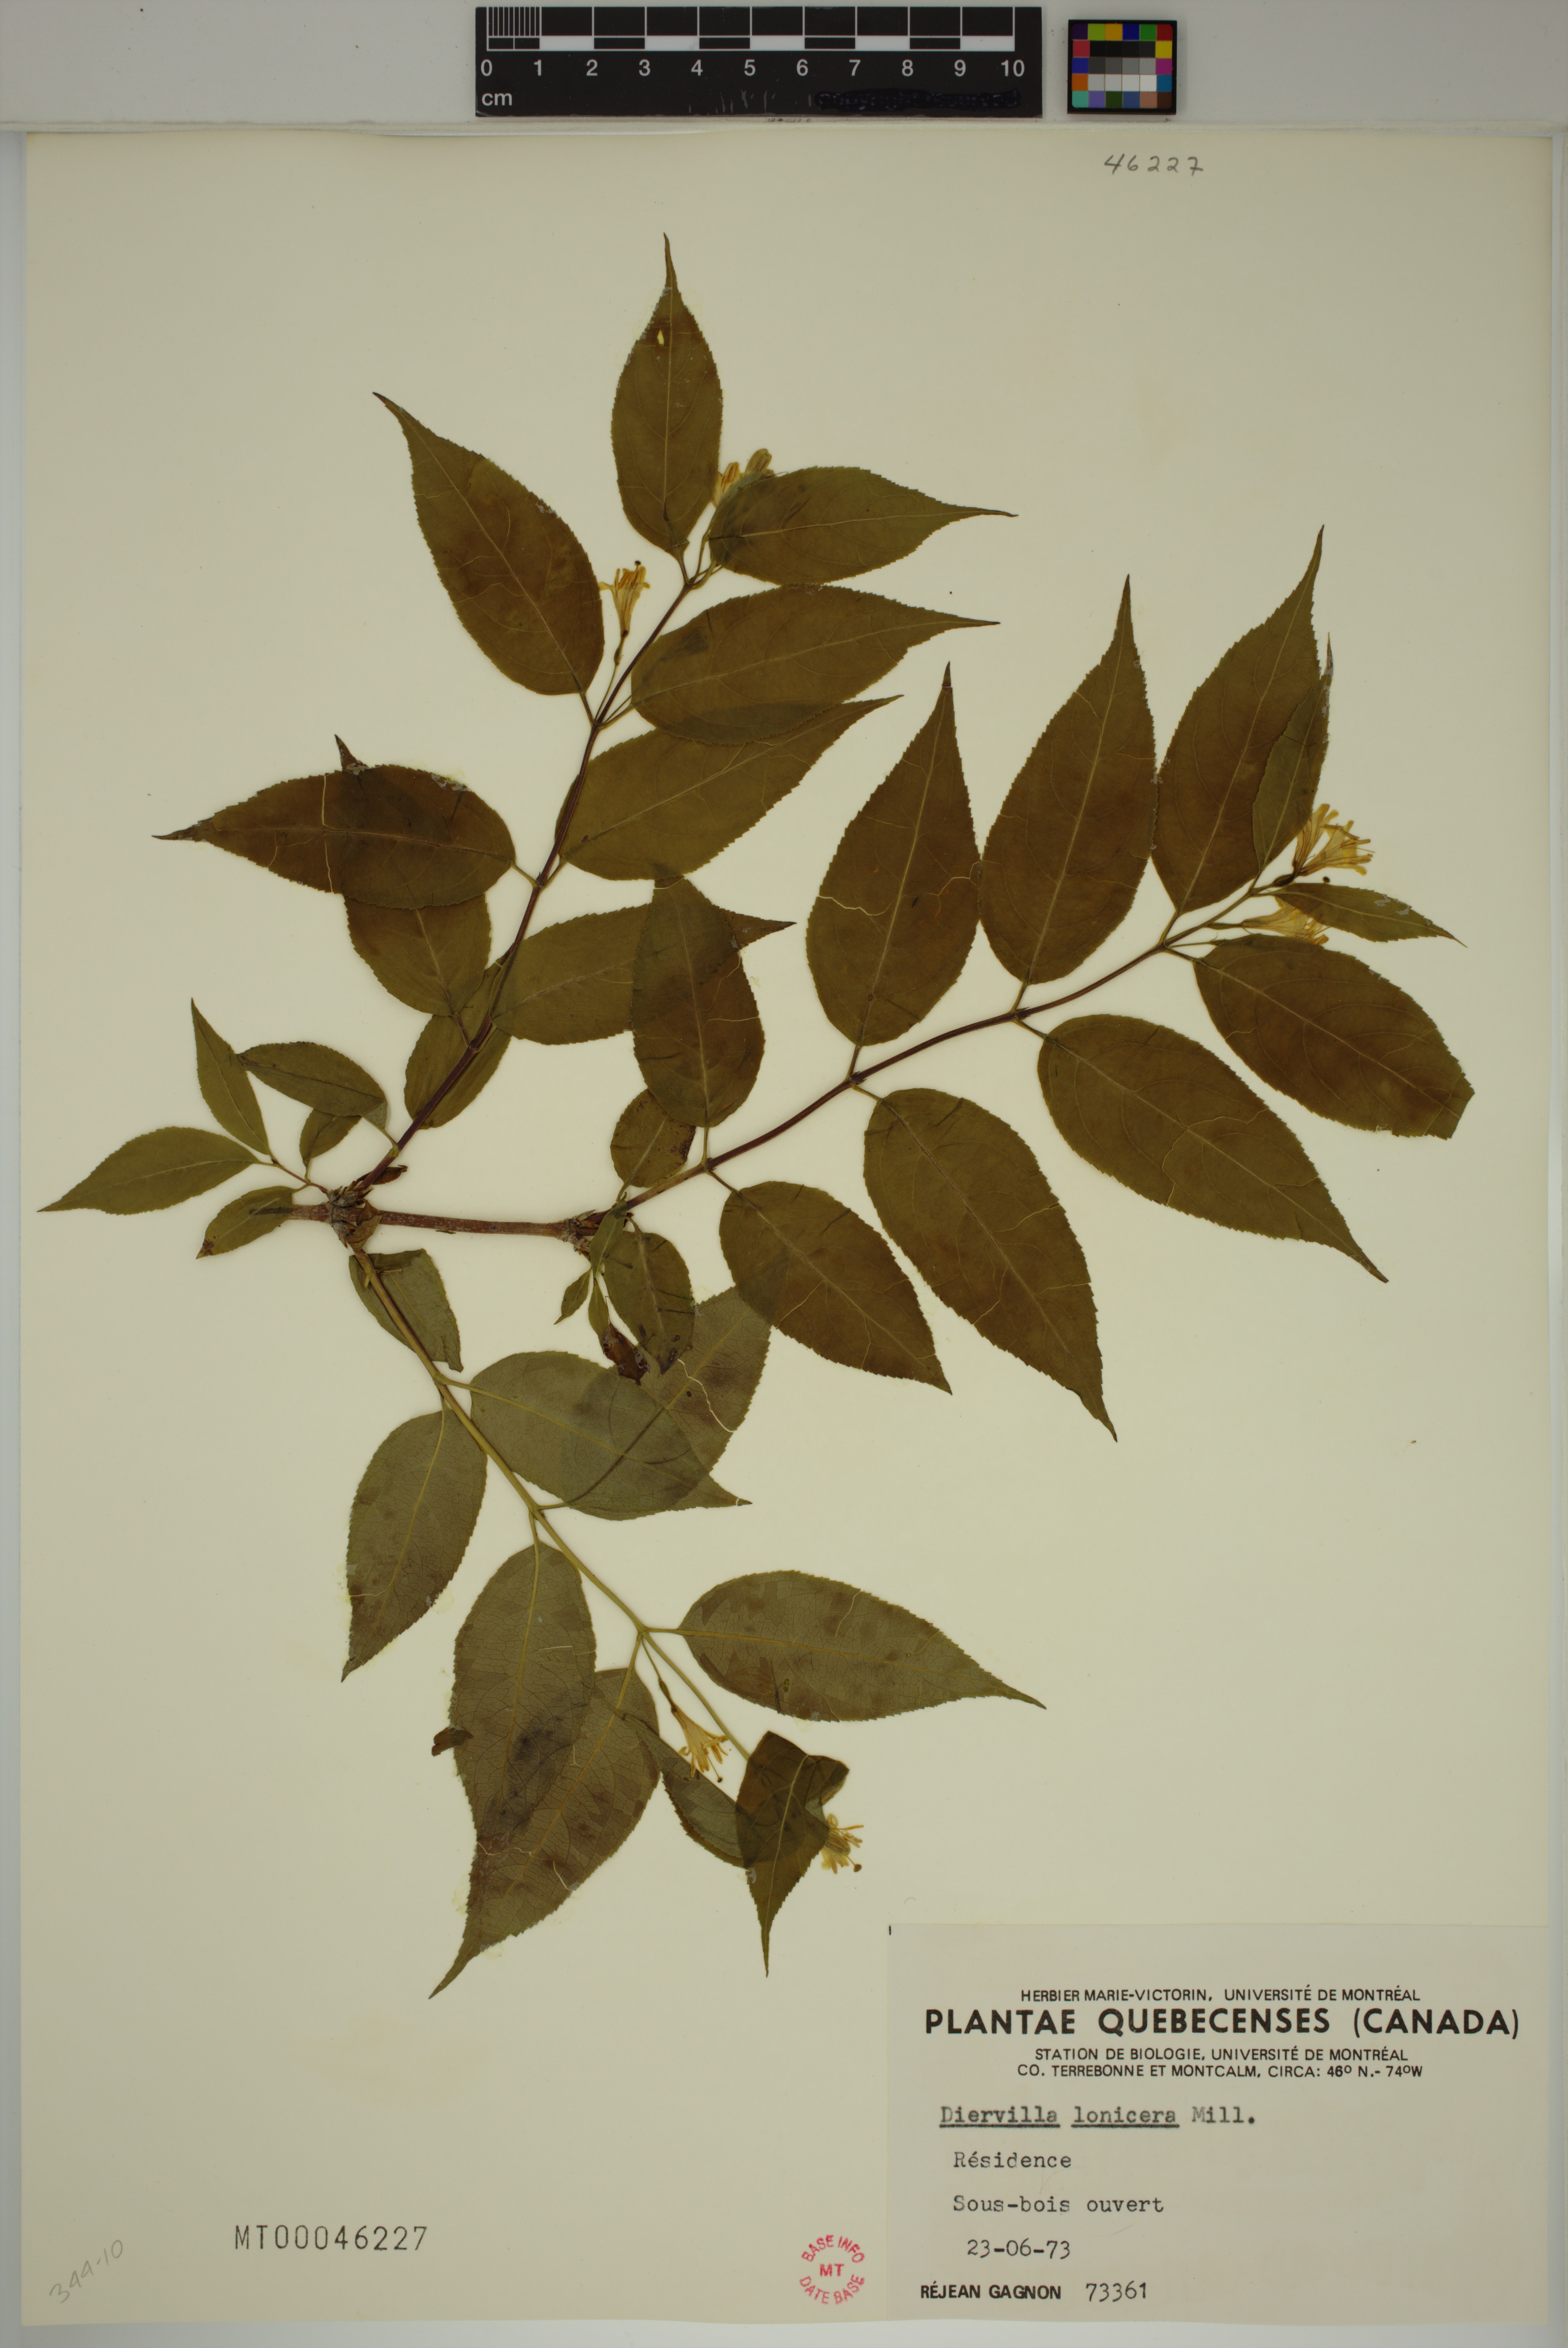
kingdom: Plantae
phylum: Tracheophyta
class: Magnoliopsida
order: Dipsacales
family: Caprifoliaceae
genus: Diervilla
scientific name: Diervilla lonicera
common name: Bush-honeysuckle
